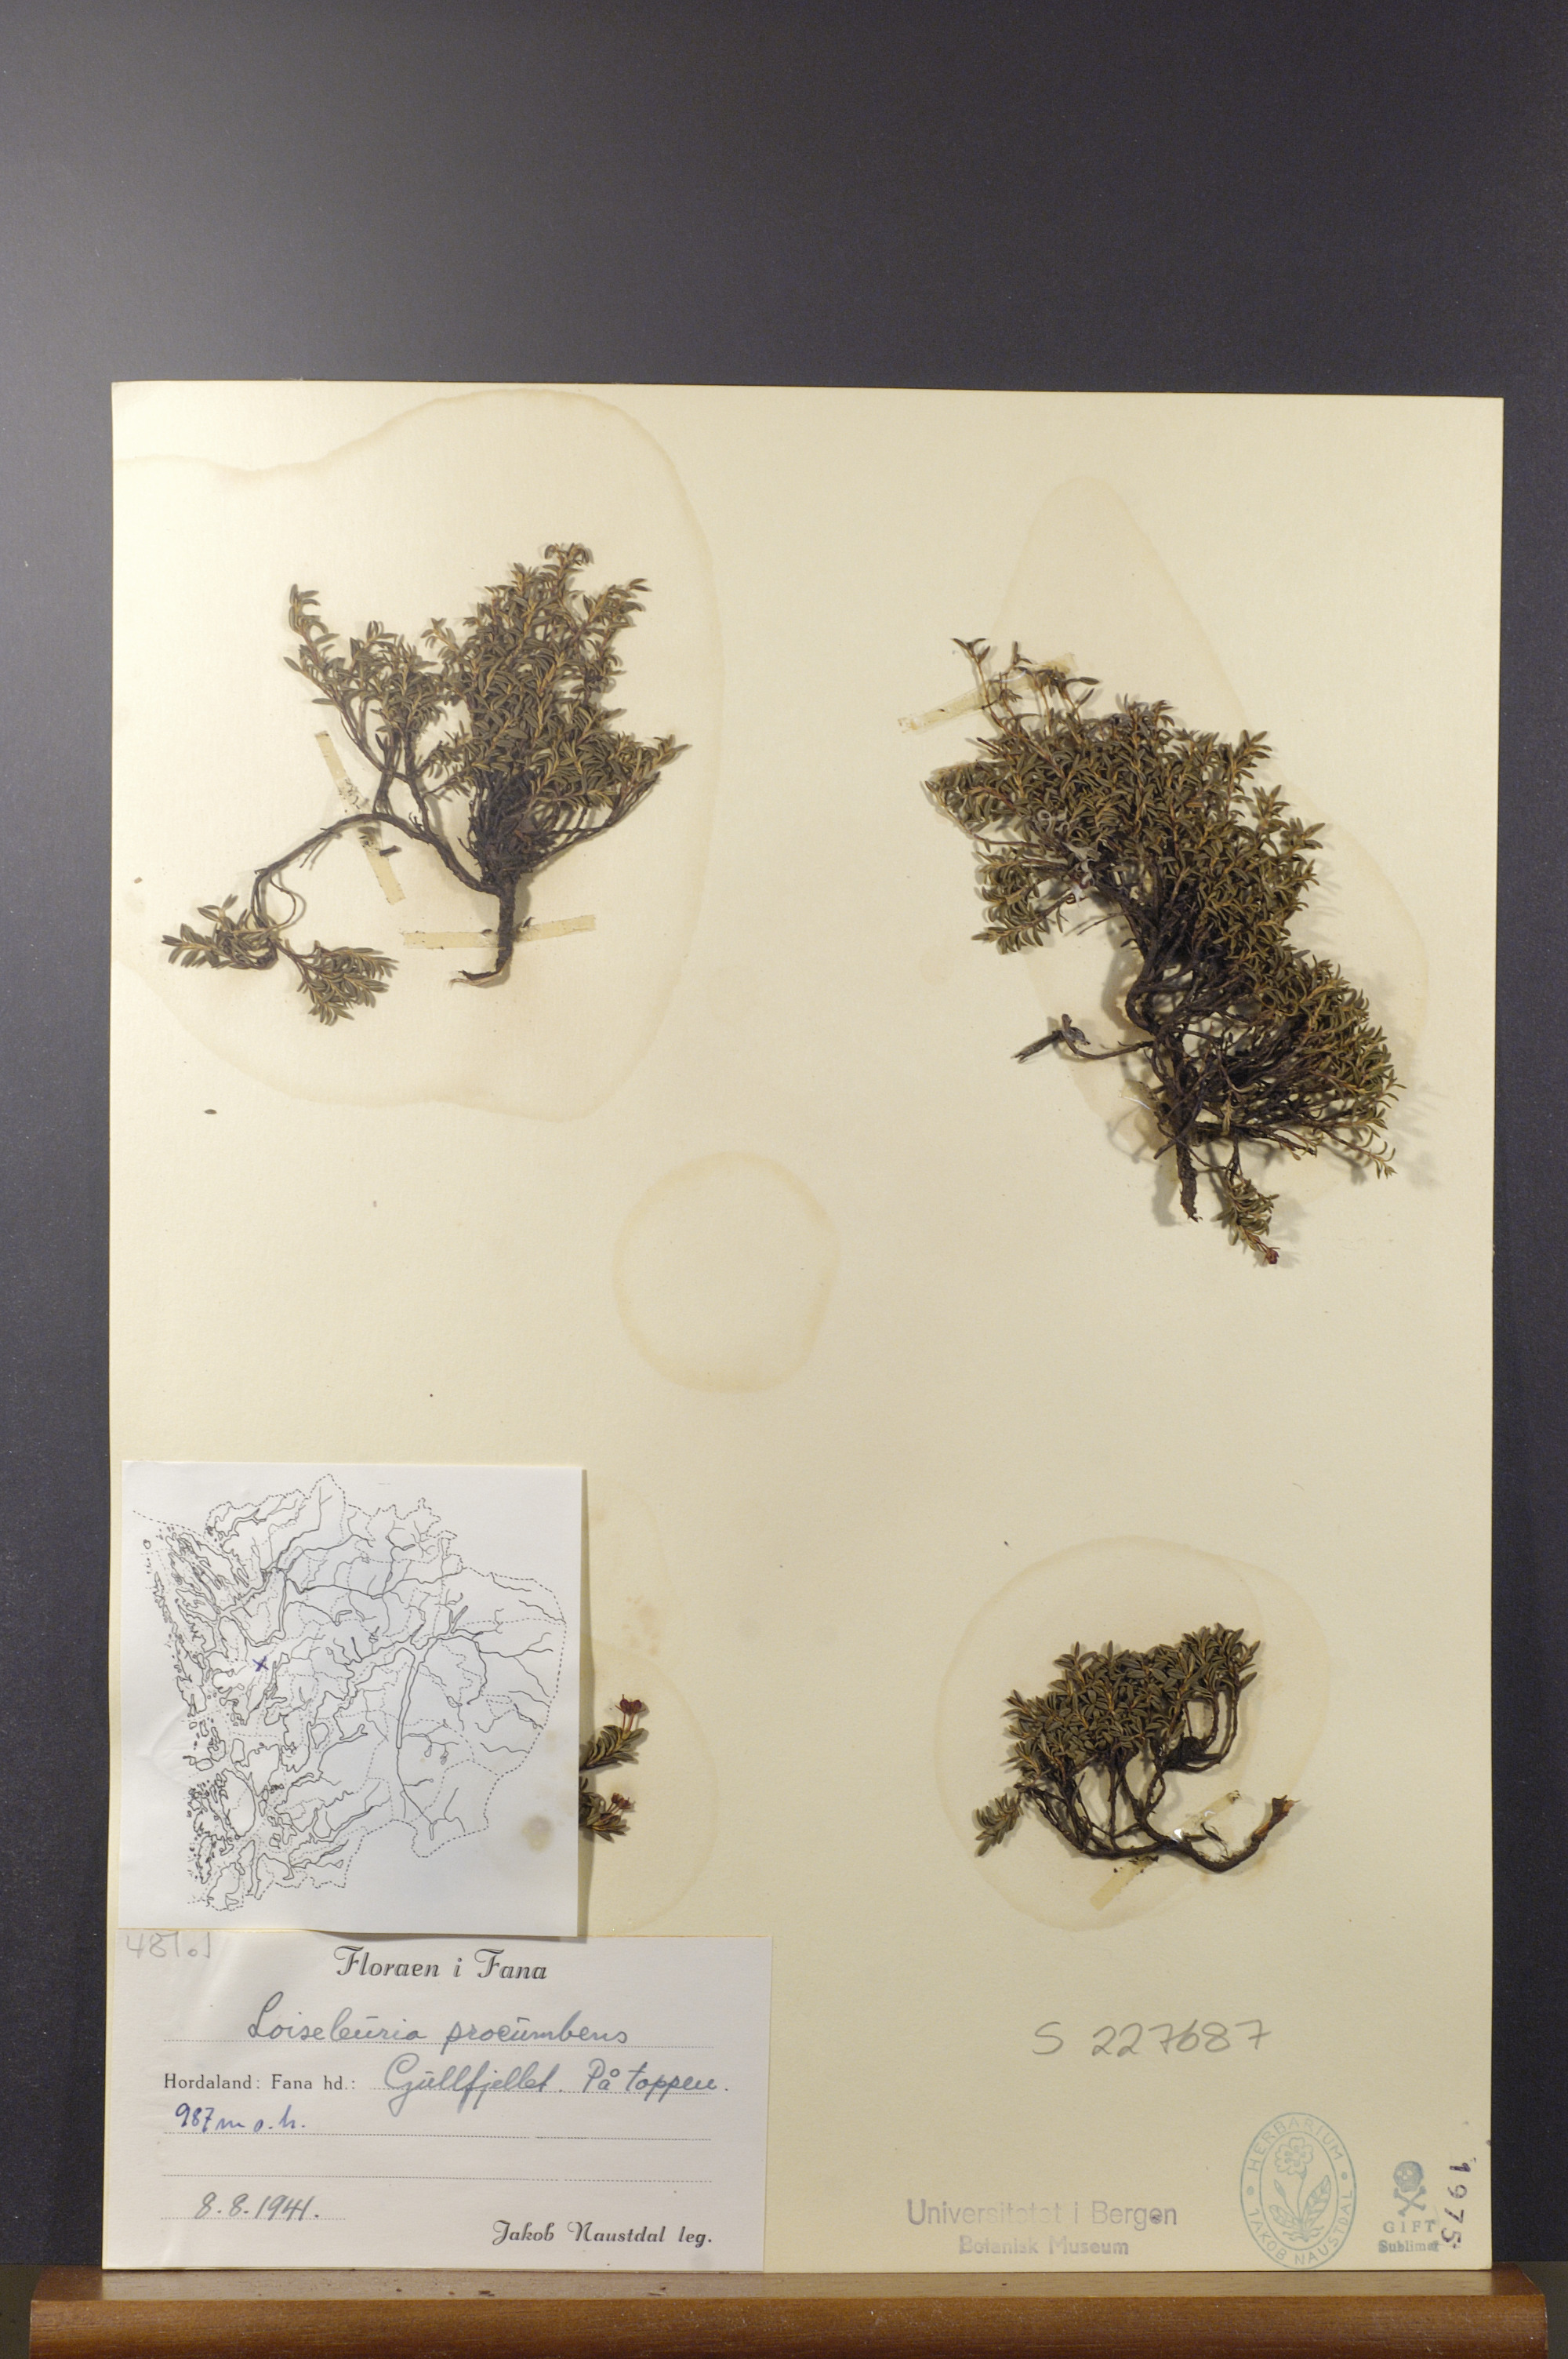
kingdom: Plantae
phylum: Tracheophyta
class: Magnoliopsida
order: Ericales
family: Ericaceae
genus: Kalmia
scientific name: Kalmia procumbens
